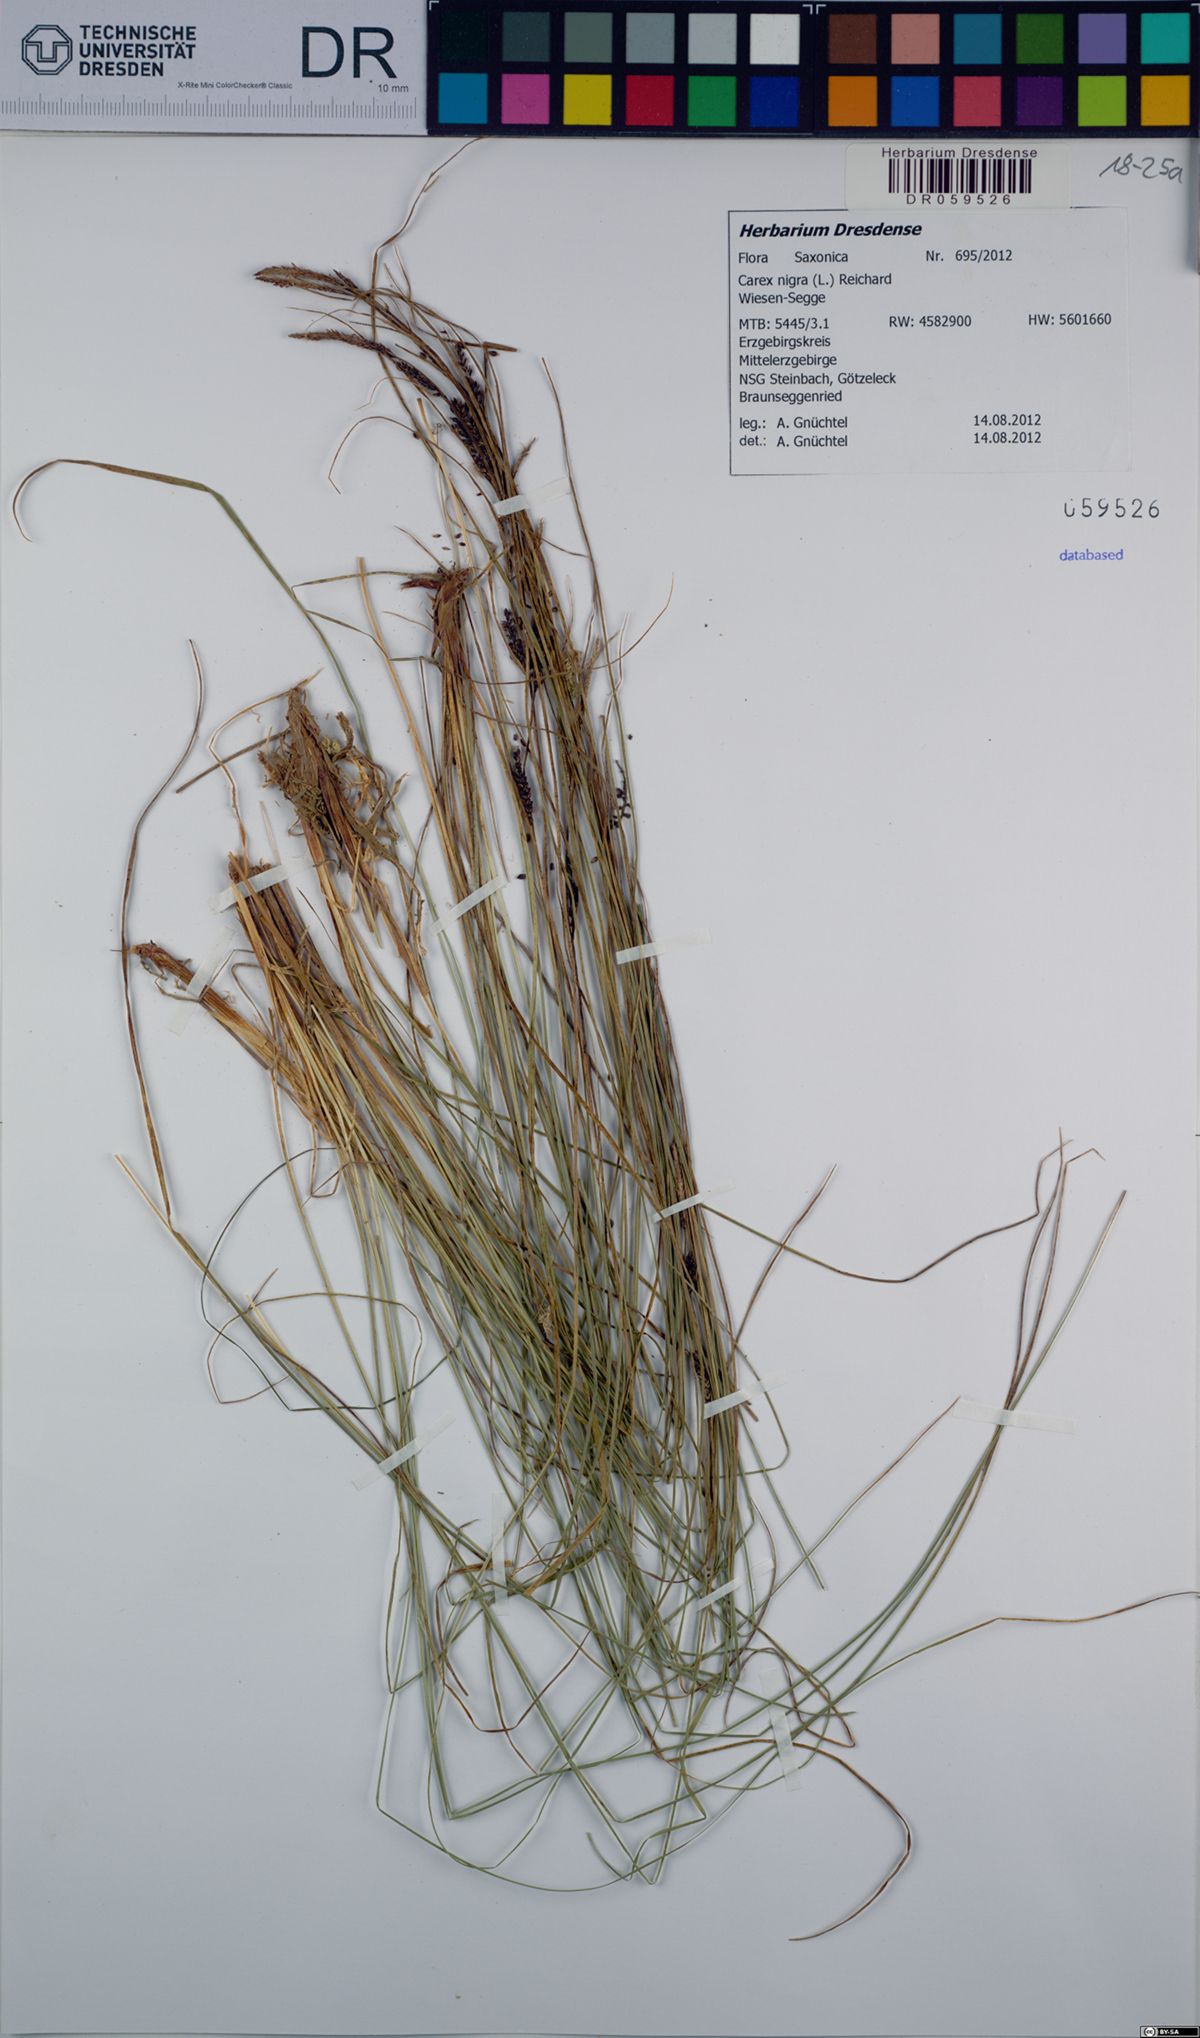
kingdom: Plantae
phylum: Tracheophyta
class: Liliopsida
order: Poales
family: Cyperaceae
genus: Carex
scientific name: Carex nigra
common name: Common sedge
